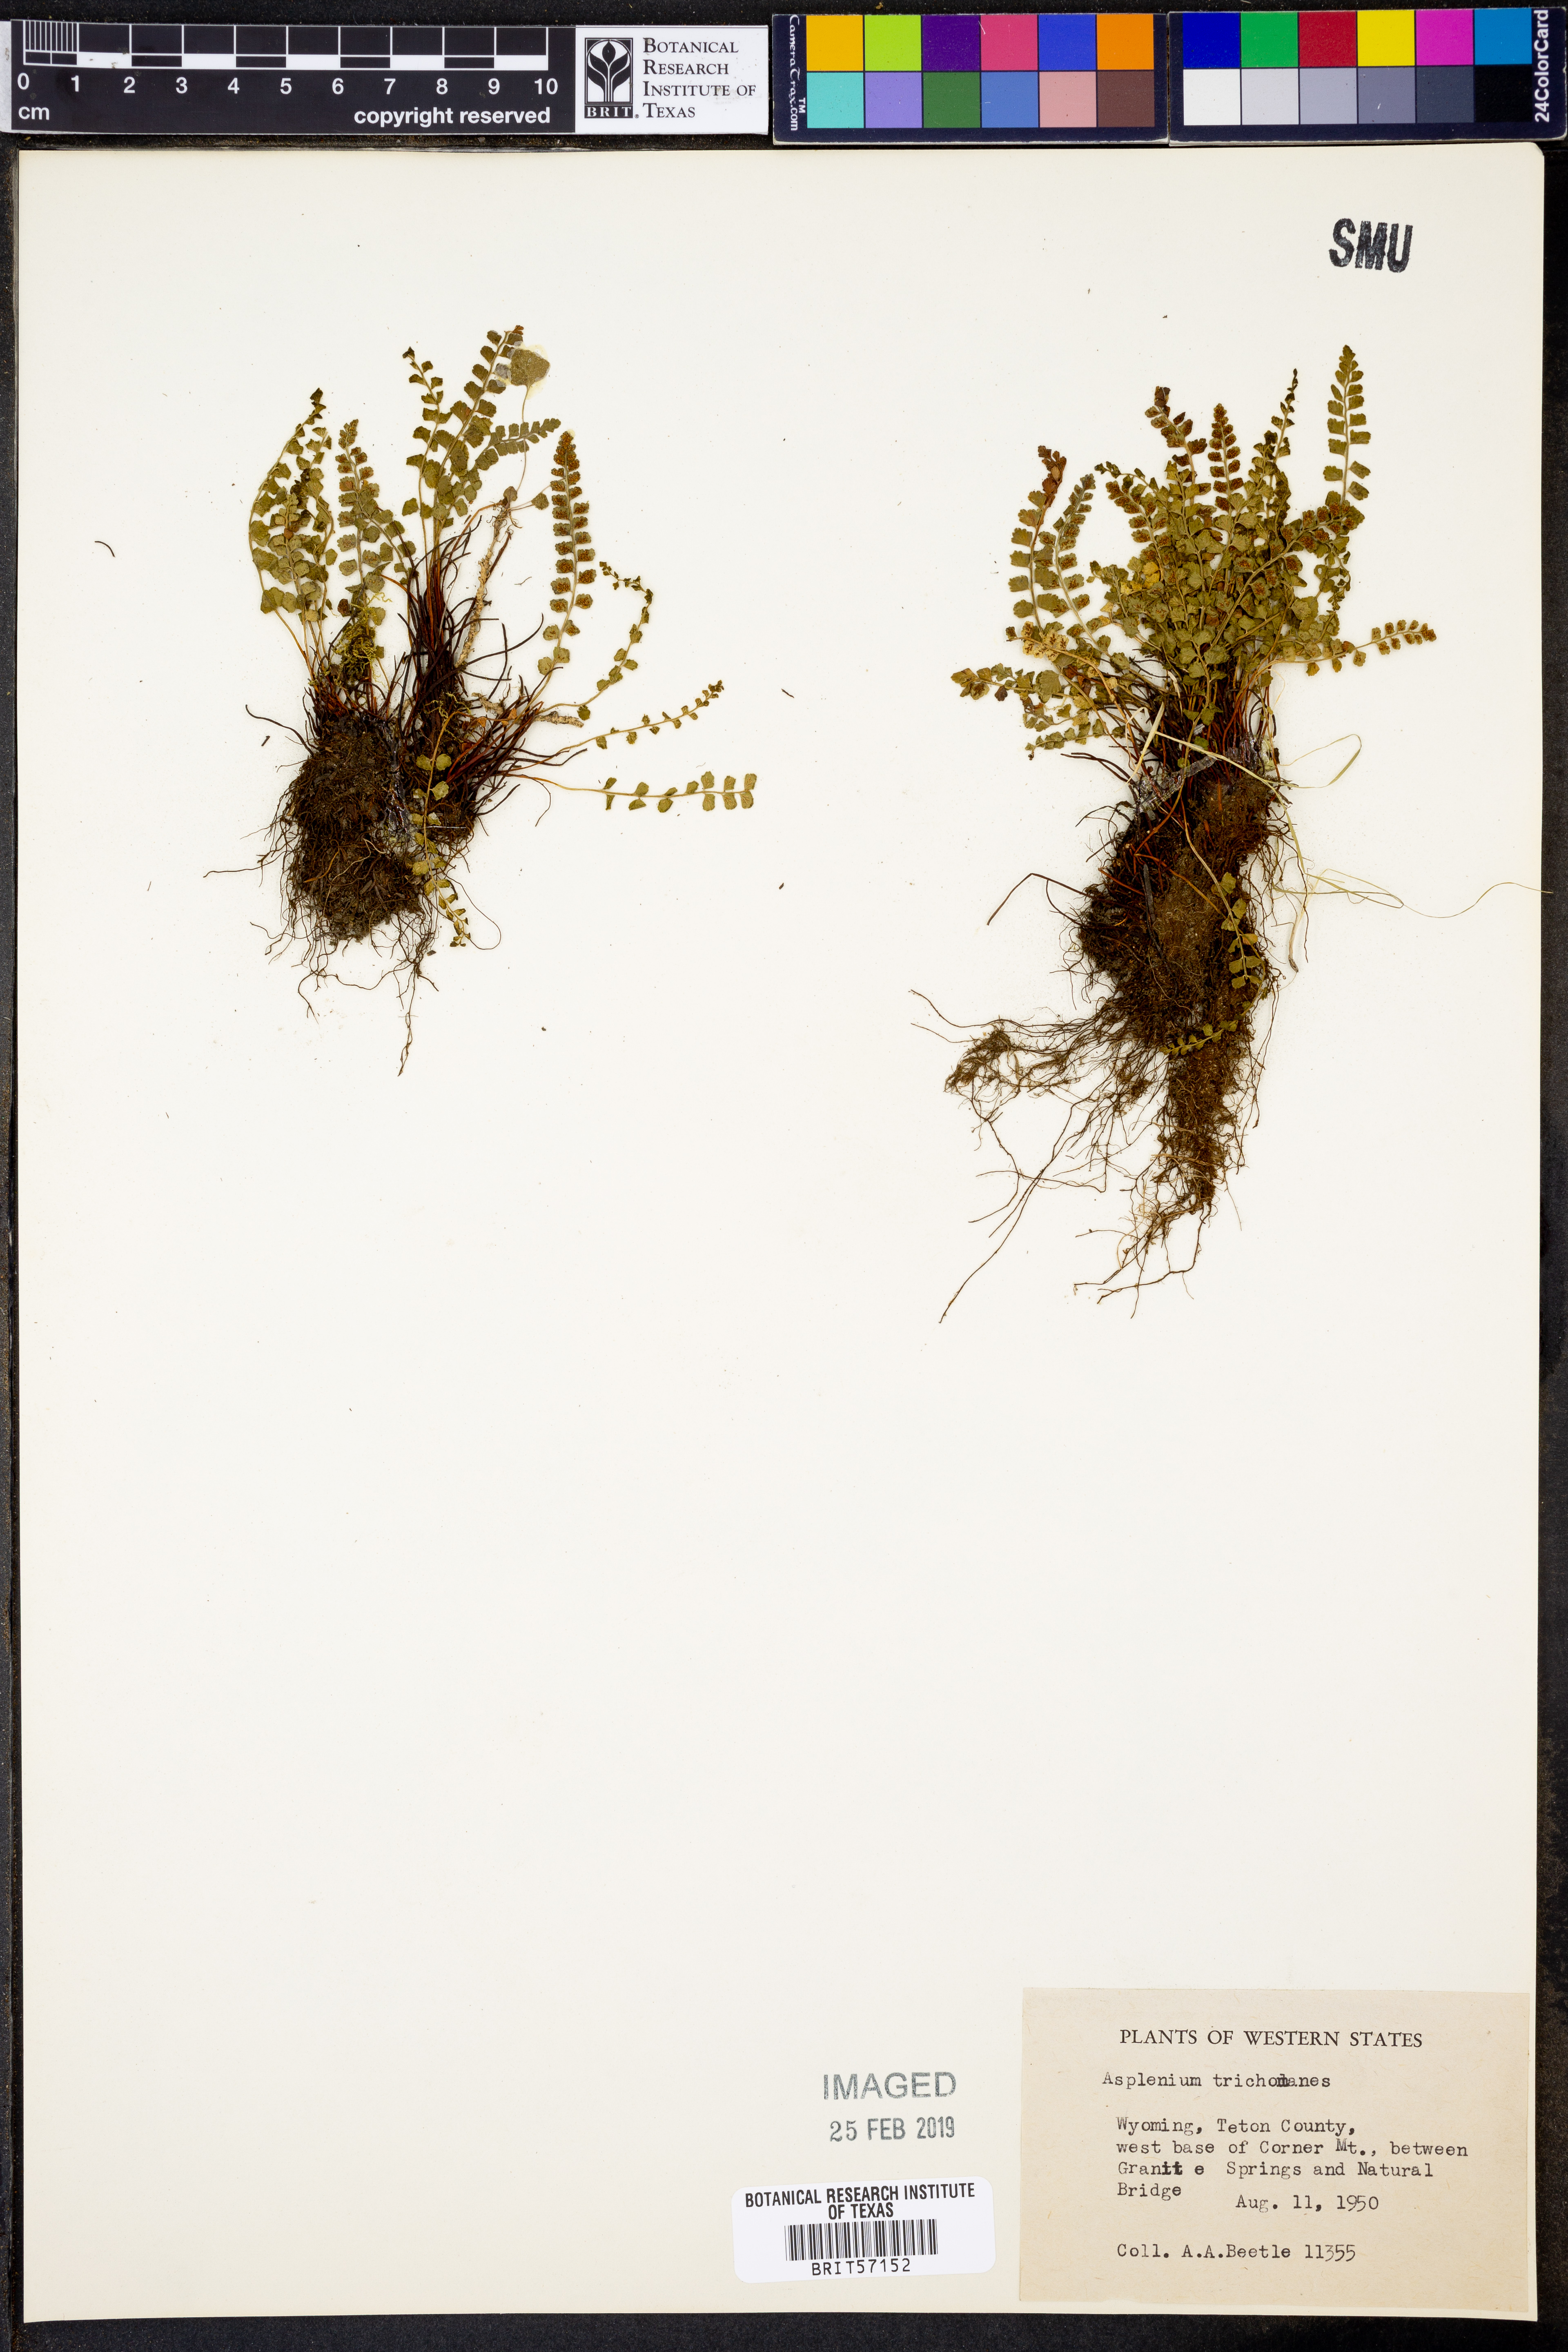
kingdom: Plantae
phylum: Tracheophyta
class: Polypodiopsida
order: Polypodiales
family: Aspleniaceae
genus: Asplenium
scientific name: Asplenium trichomanes
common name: Maidenhair spleenwort
